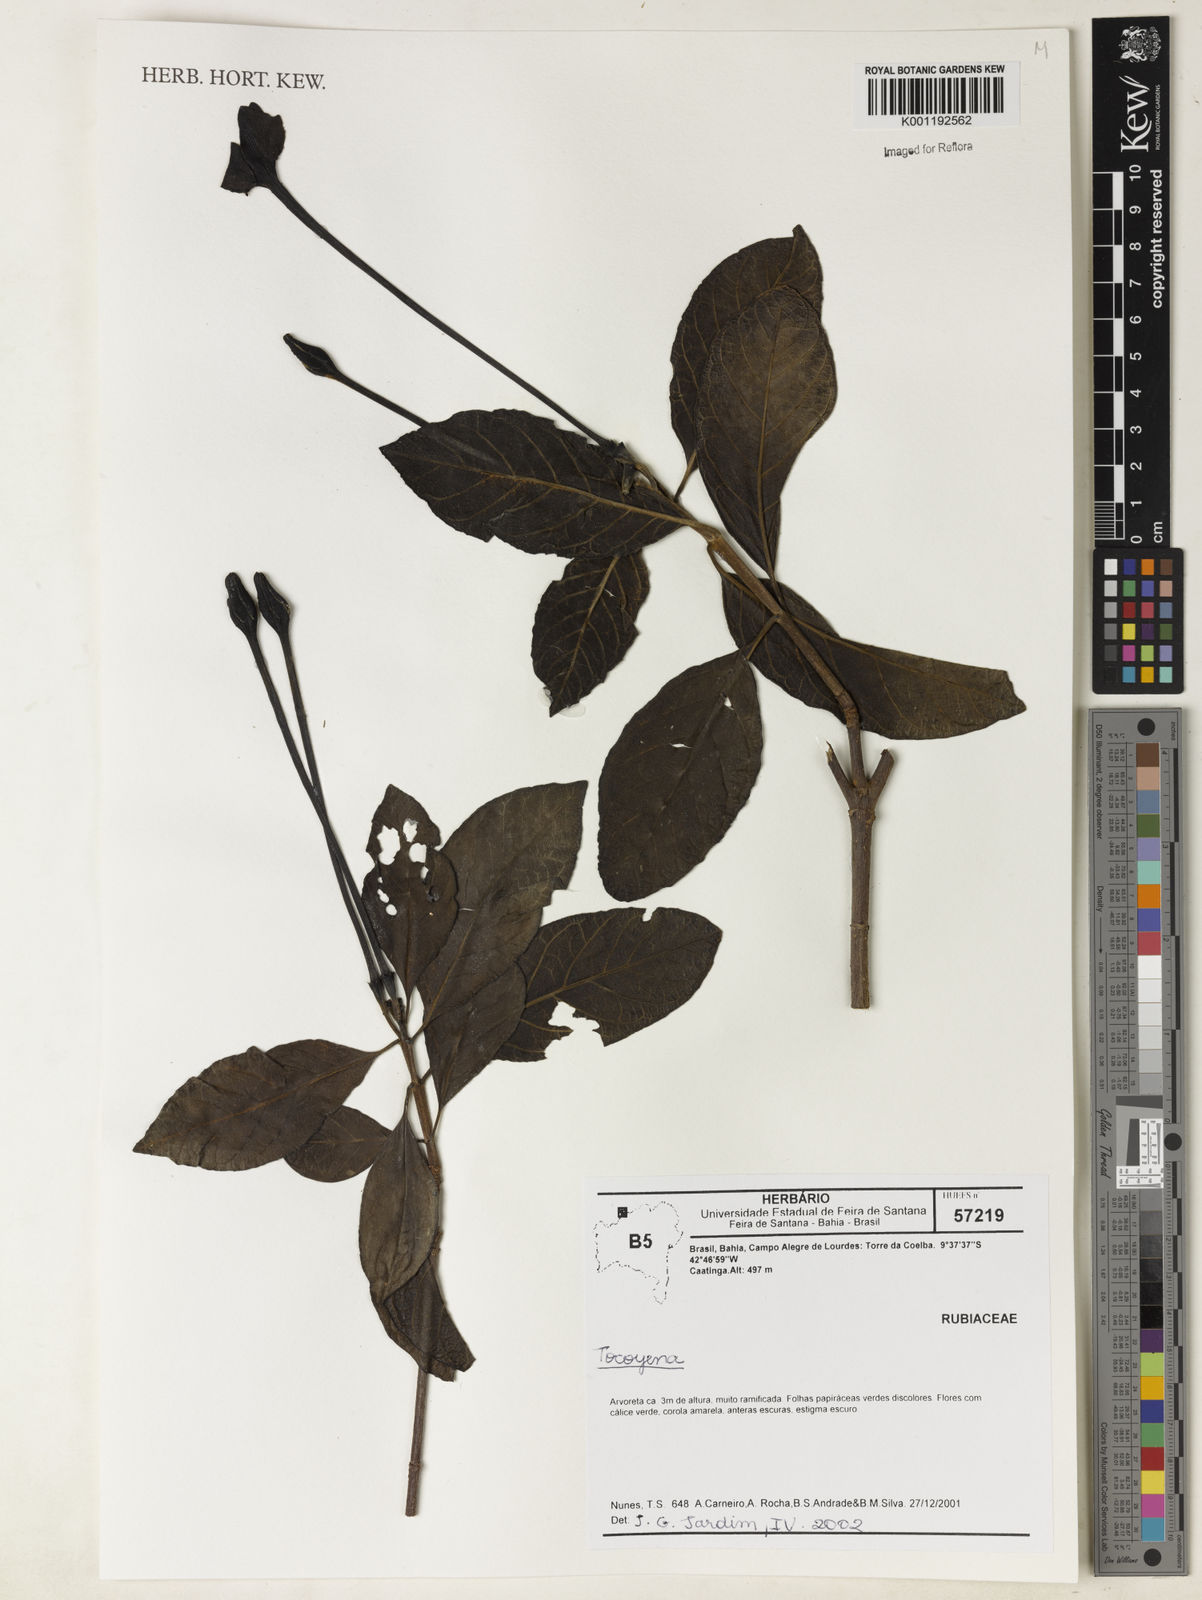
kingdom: Plantae
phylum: Tracheophyta
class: Magnoliopsida
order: Gentianales
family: Rubiaceae
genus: Tocoyena
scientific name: Tocoyena formosa
